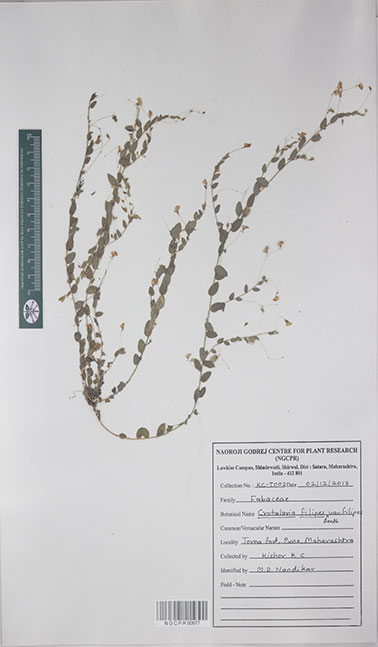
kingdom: Plantae
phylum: Tracheophyta
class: Magnoliopsida
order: Fabales
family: Fabaceae
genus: Crotalaria
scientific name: Crotalaria
